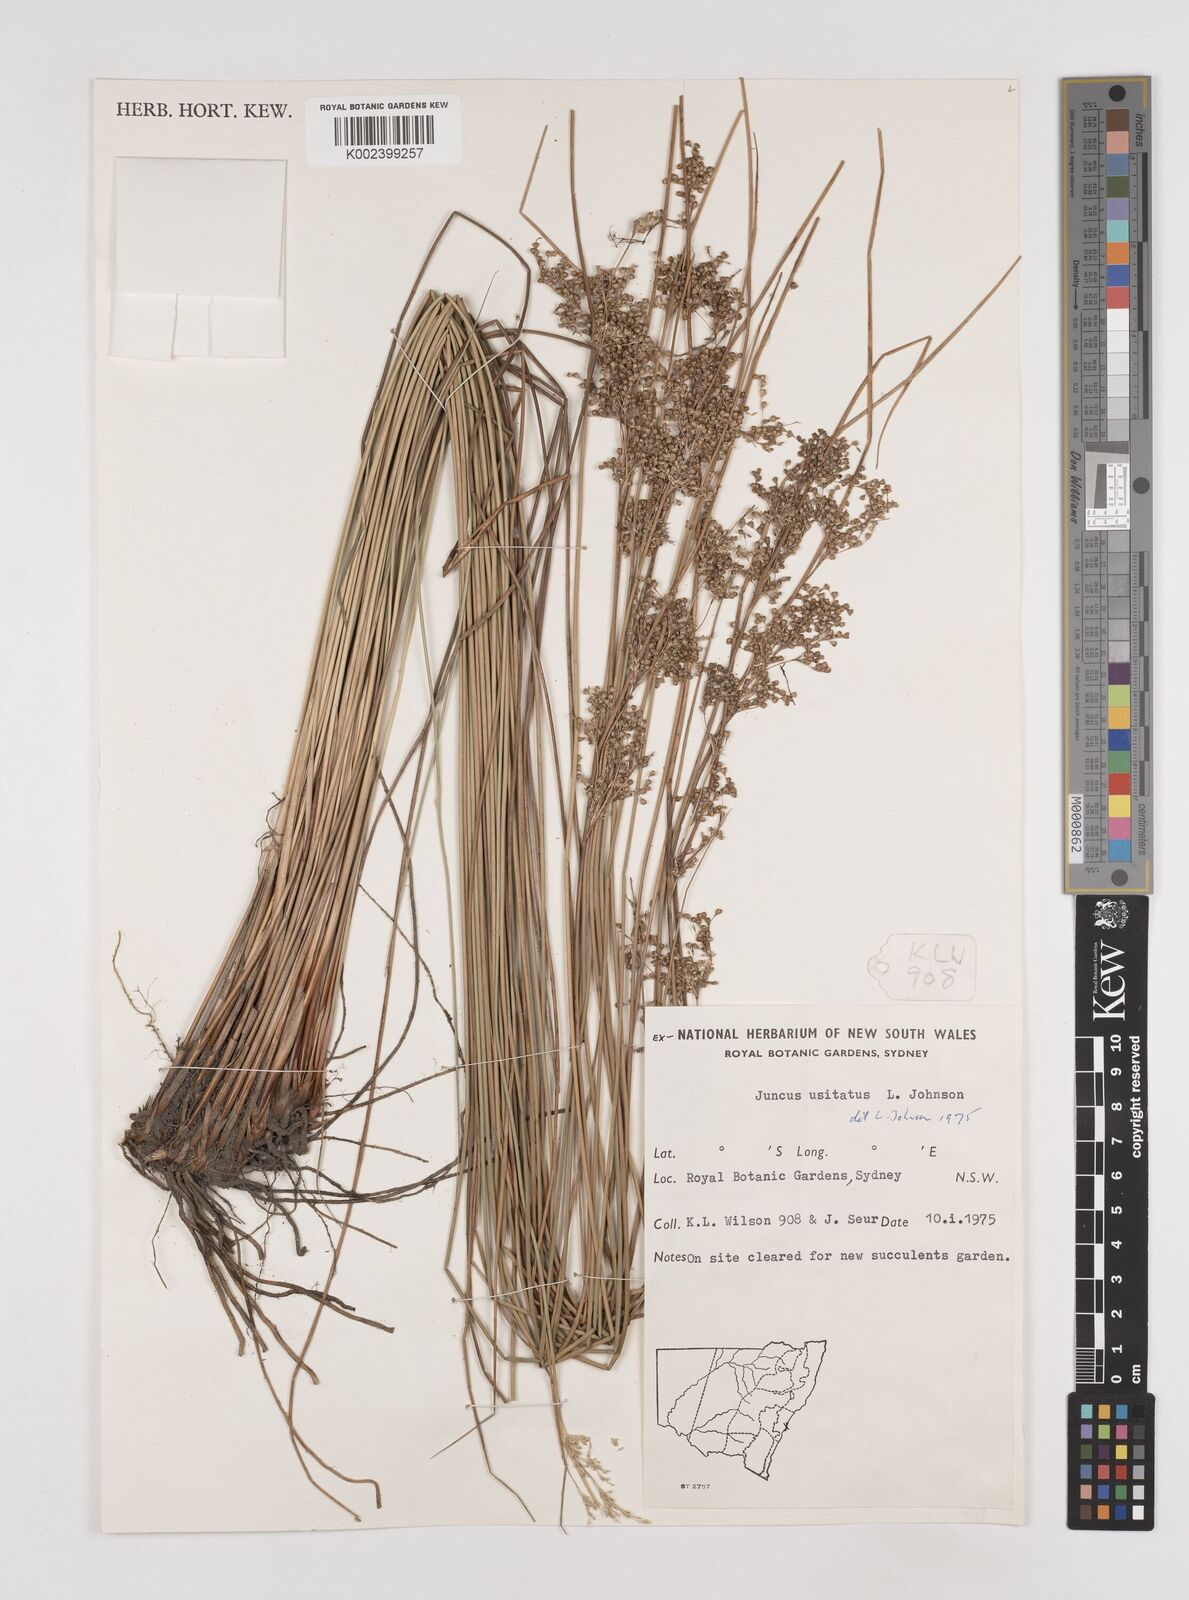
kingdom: Plantae
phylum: Tracheophyta
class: Liliopsida
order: Poales
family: Juncaceae
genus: Juncus
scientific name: Juncus usitatus
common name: Rush
